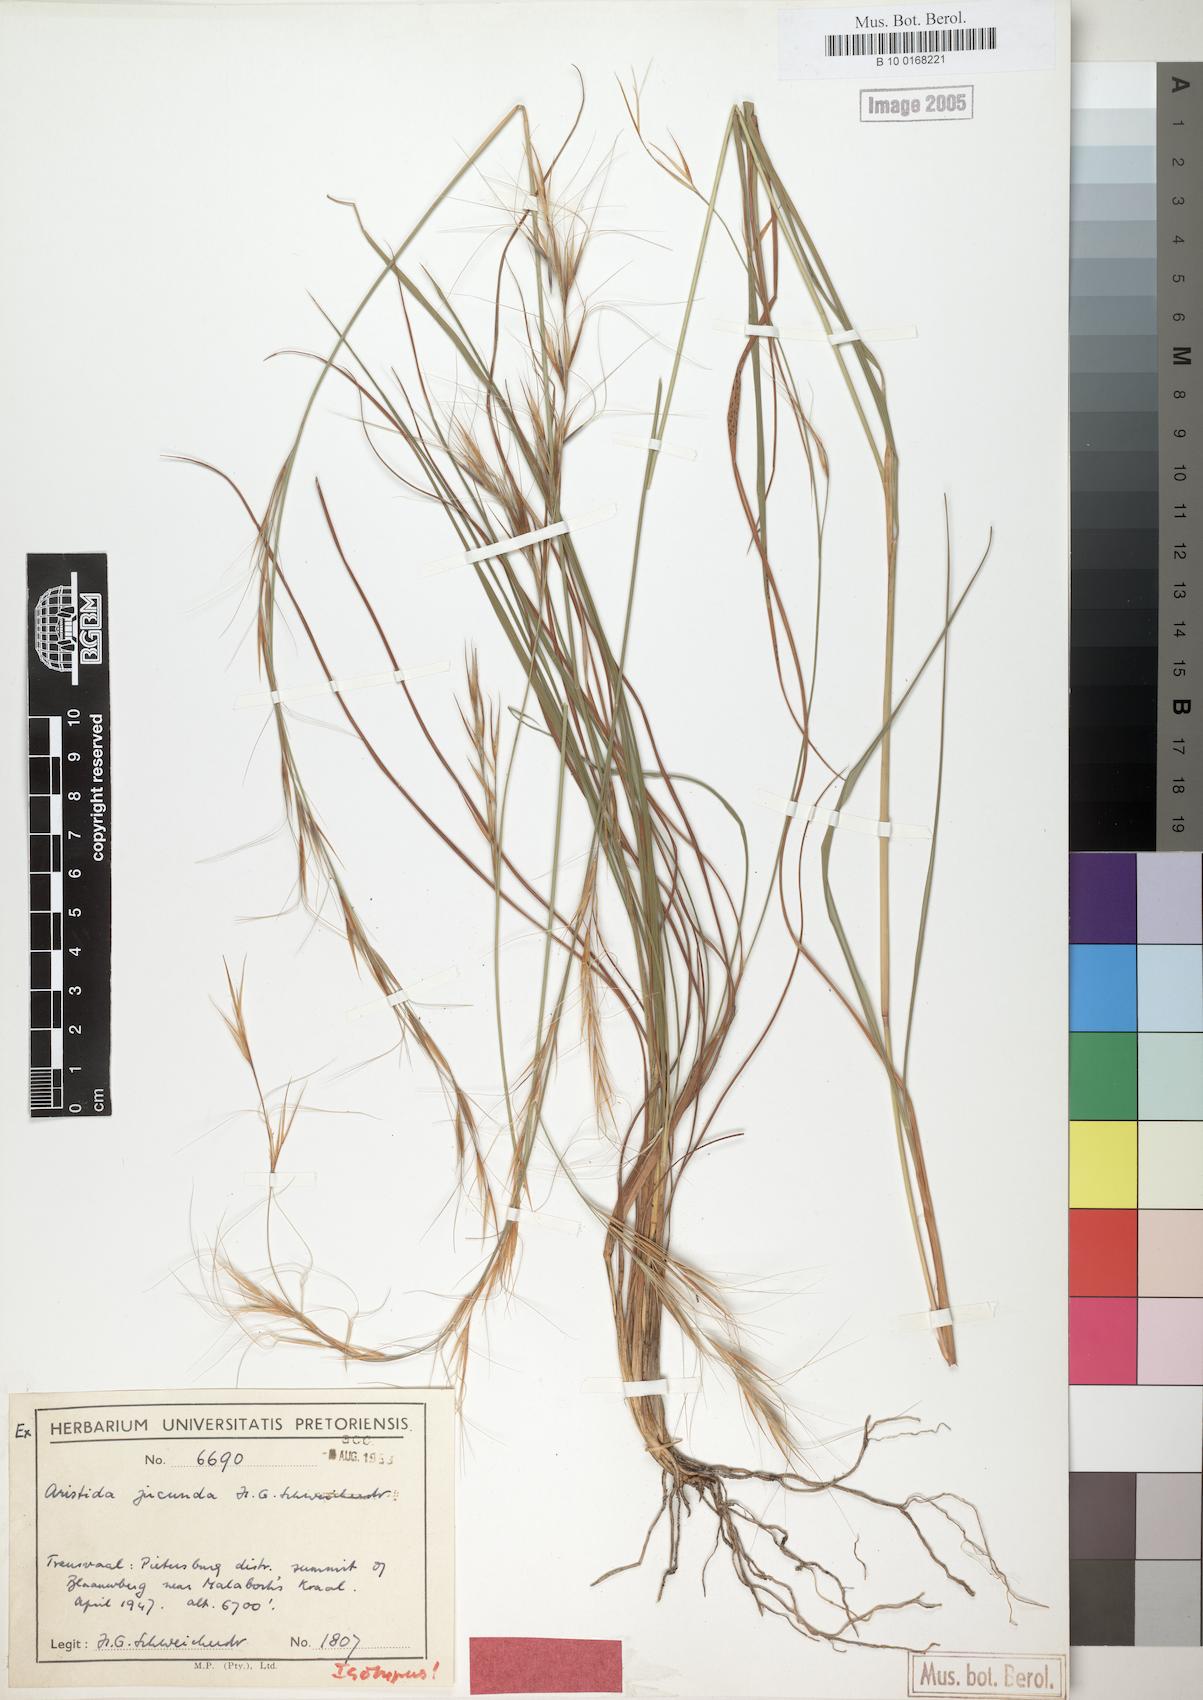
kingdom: Plantae
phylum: Tracheophyta
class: Liliopsida
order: Poales
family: Poaceae
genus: Sartidia
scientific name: Sartidia jucunda
